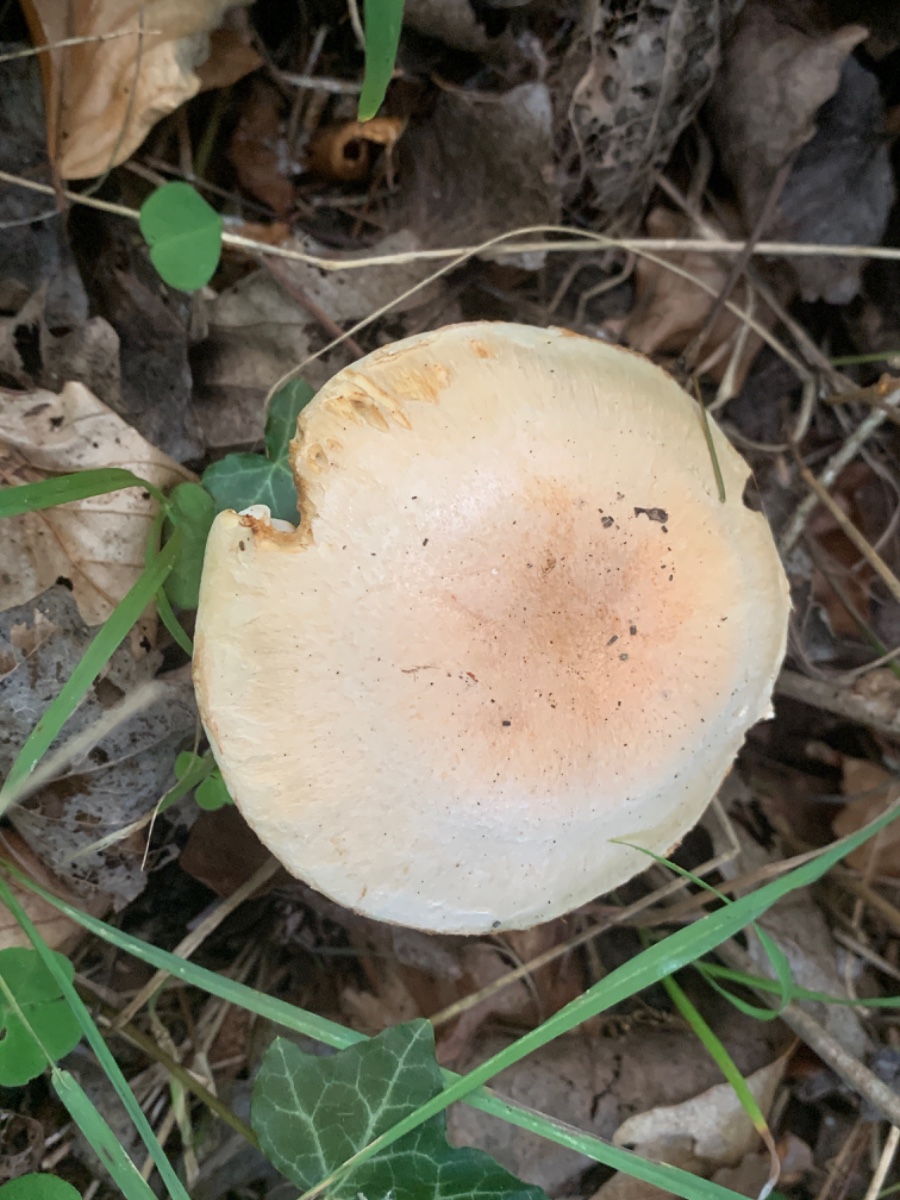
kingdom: Fungi
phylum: Basidiomycota
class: Agaricomycetes
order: Agaricales
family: Cortinariaceae
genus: Phlegmacium
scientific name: Phlegmacium argutum
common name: hvidlig slørhat
